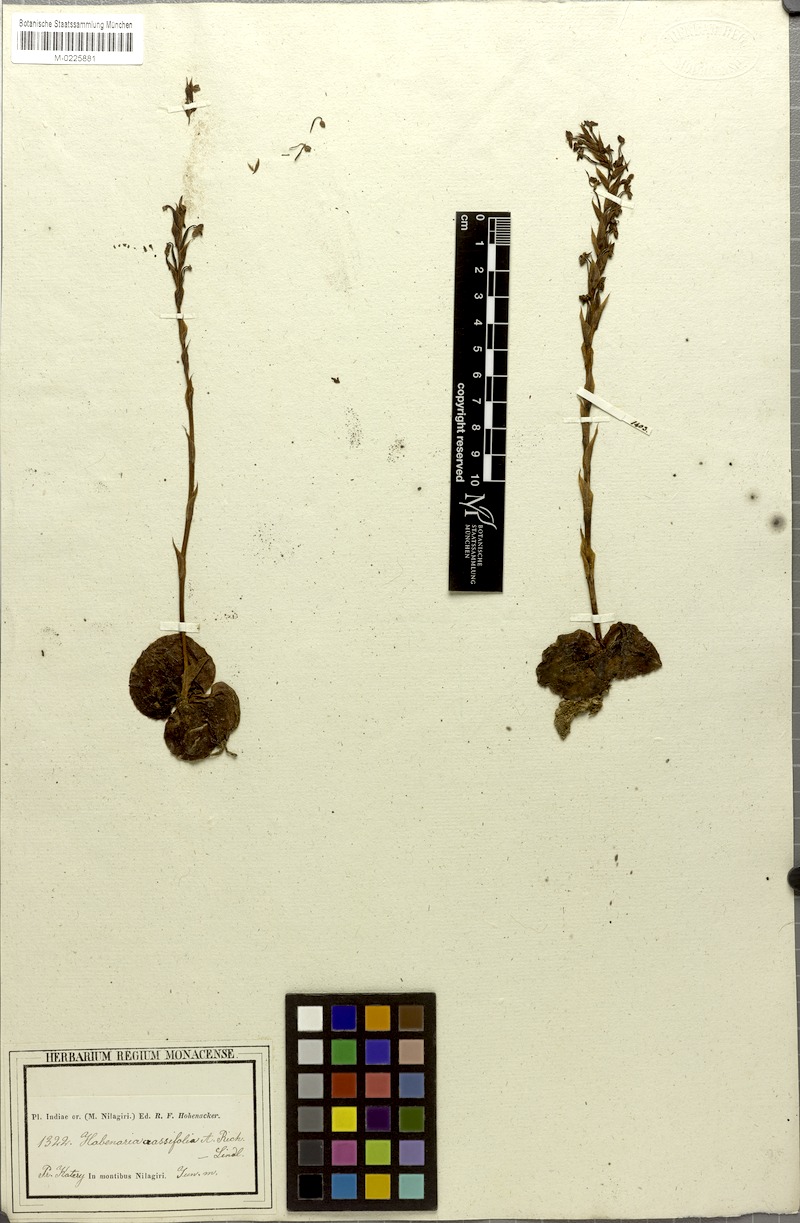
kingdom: Plantae
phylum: Tracheophyta
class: Liliopsida
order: Asparagales
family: Orchidaceae
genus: Habenaria
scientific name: Habenaria brachyphylla
